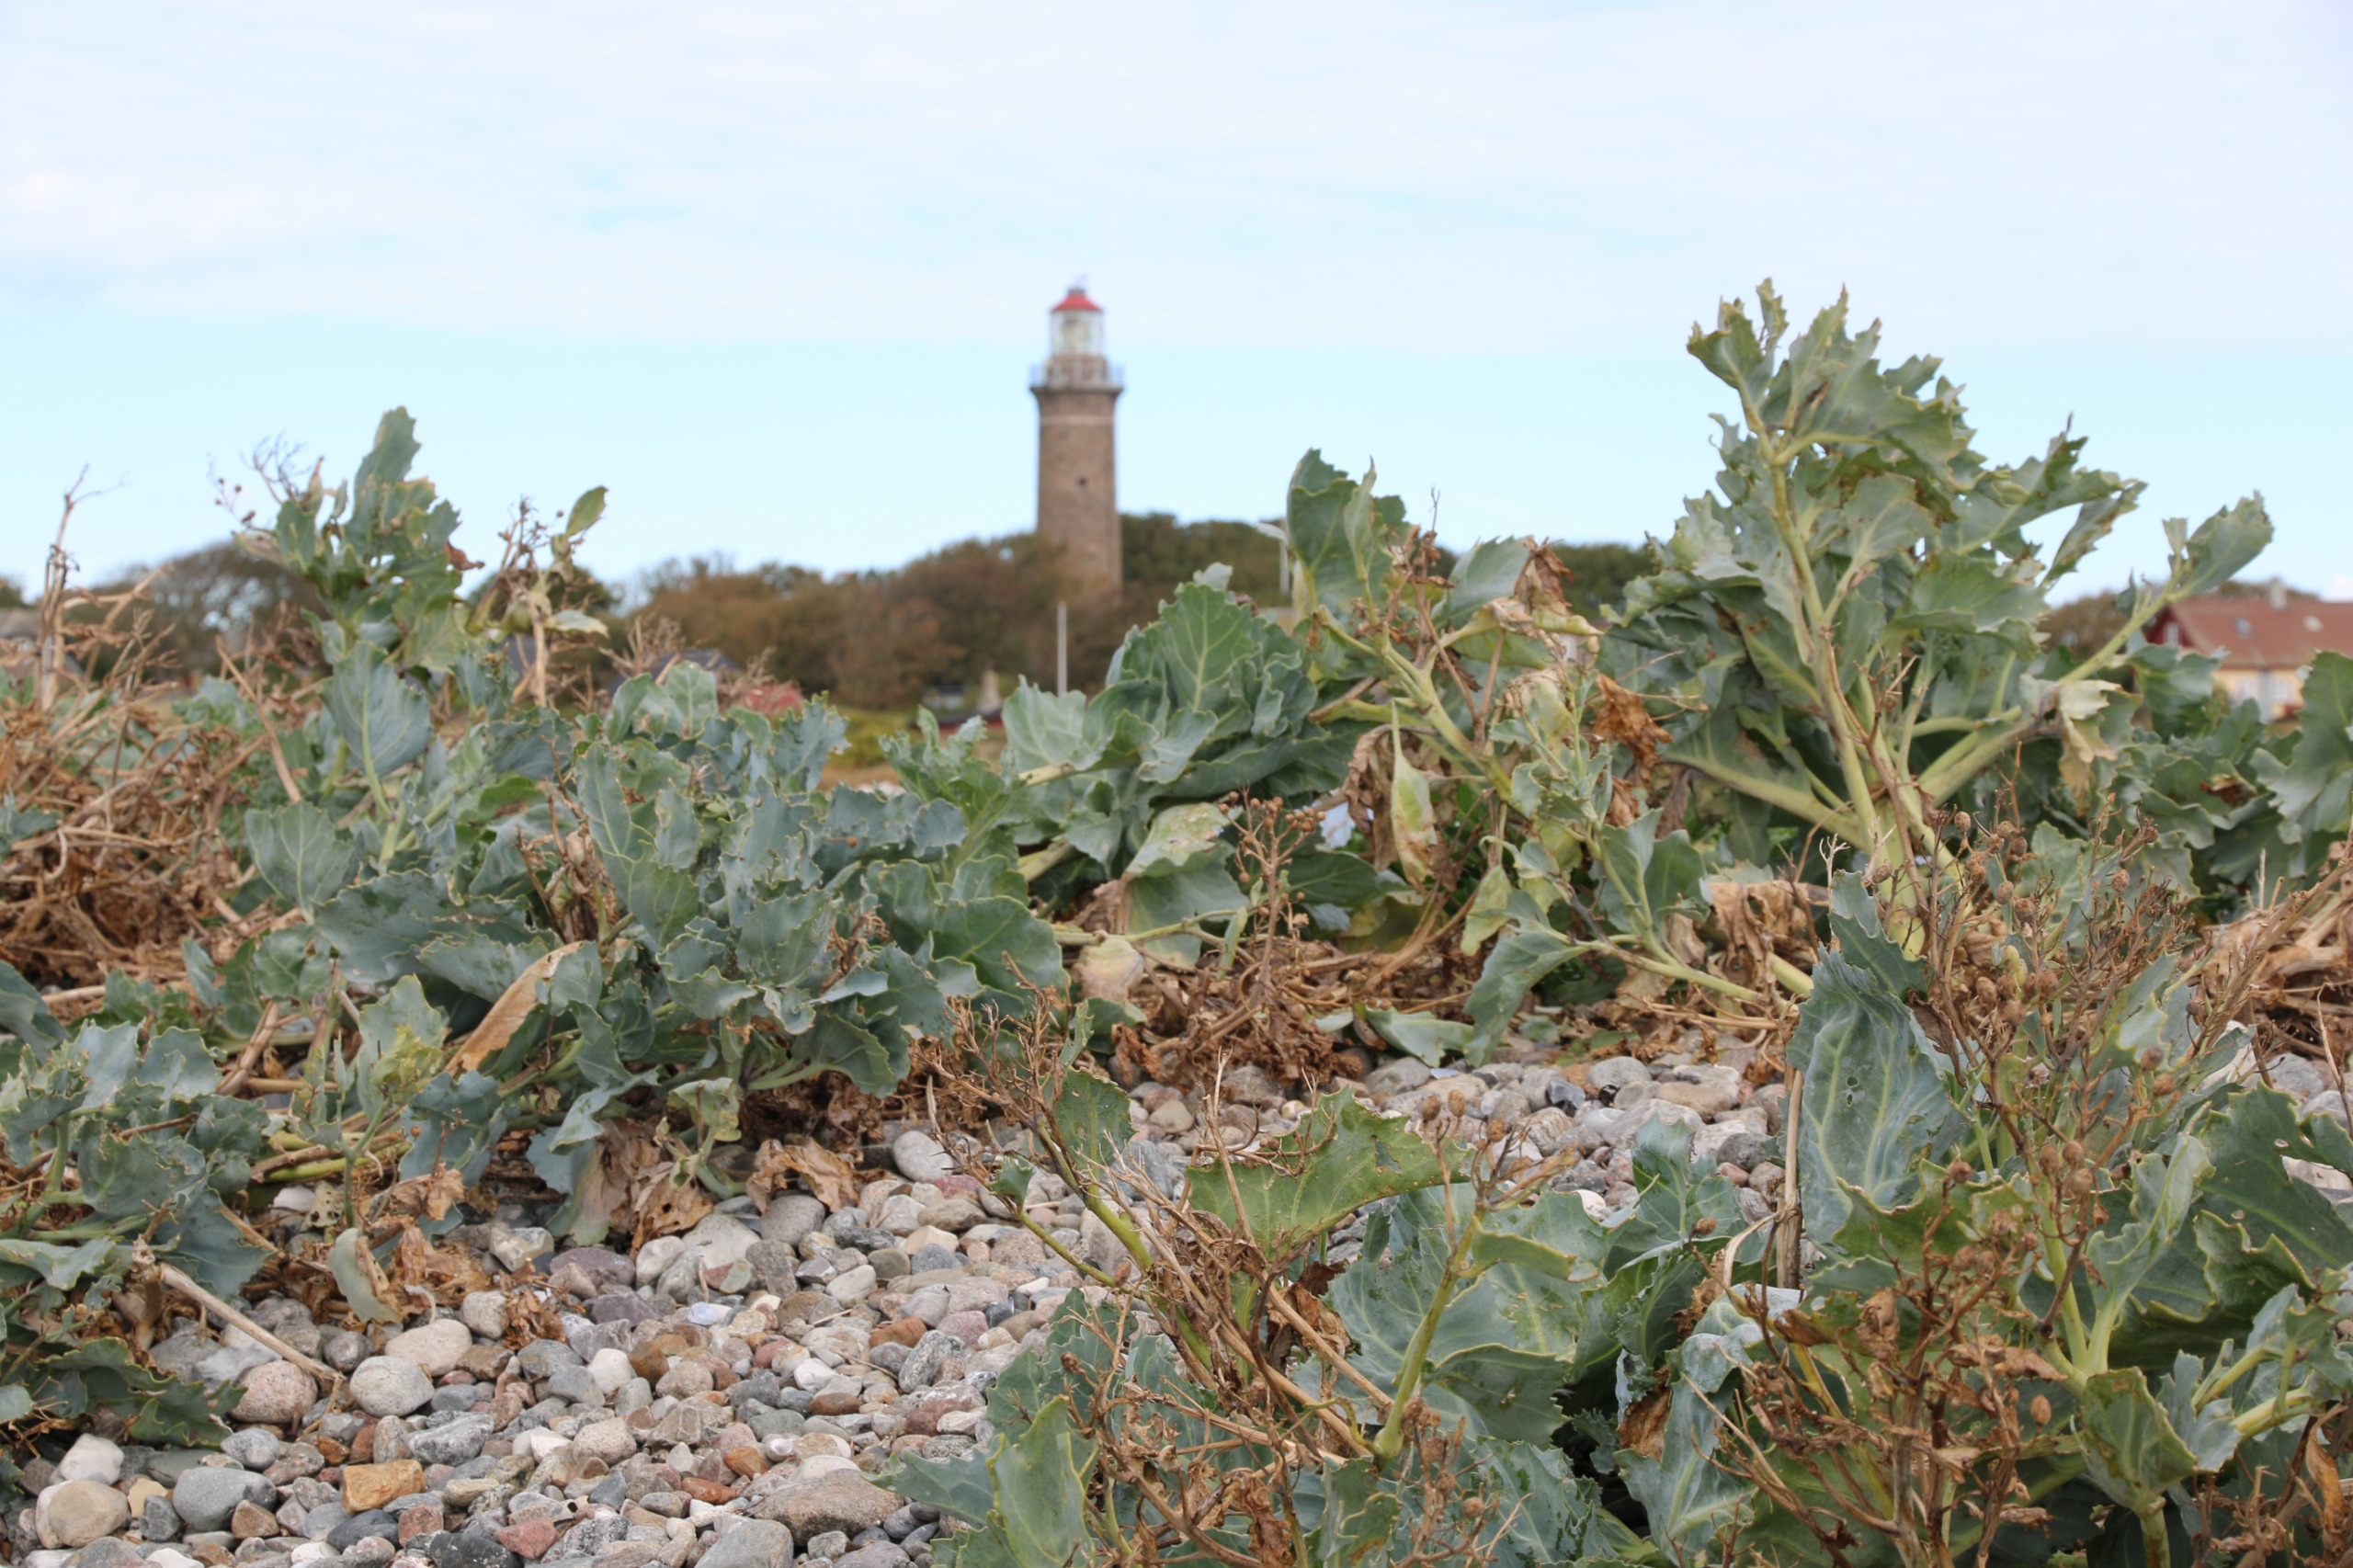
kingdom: Plantae
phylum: Tracheophyta
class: Magnoliopsida
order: Brassicales
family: Brassicaceae
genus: Crambe
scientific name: Crambe maritima
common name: Strandkål
